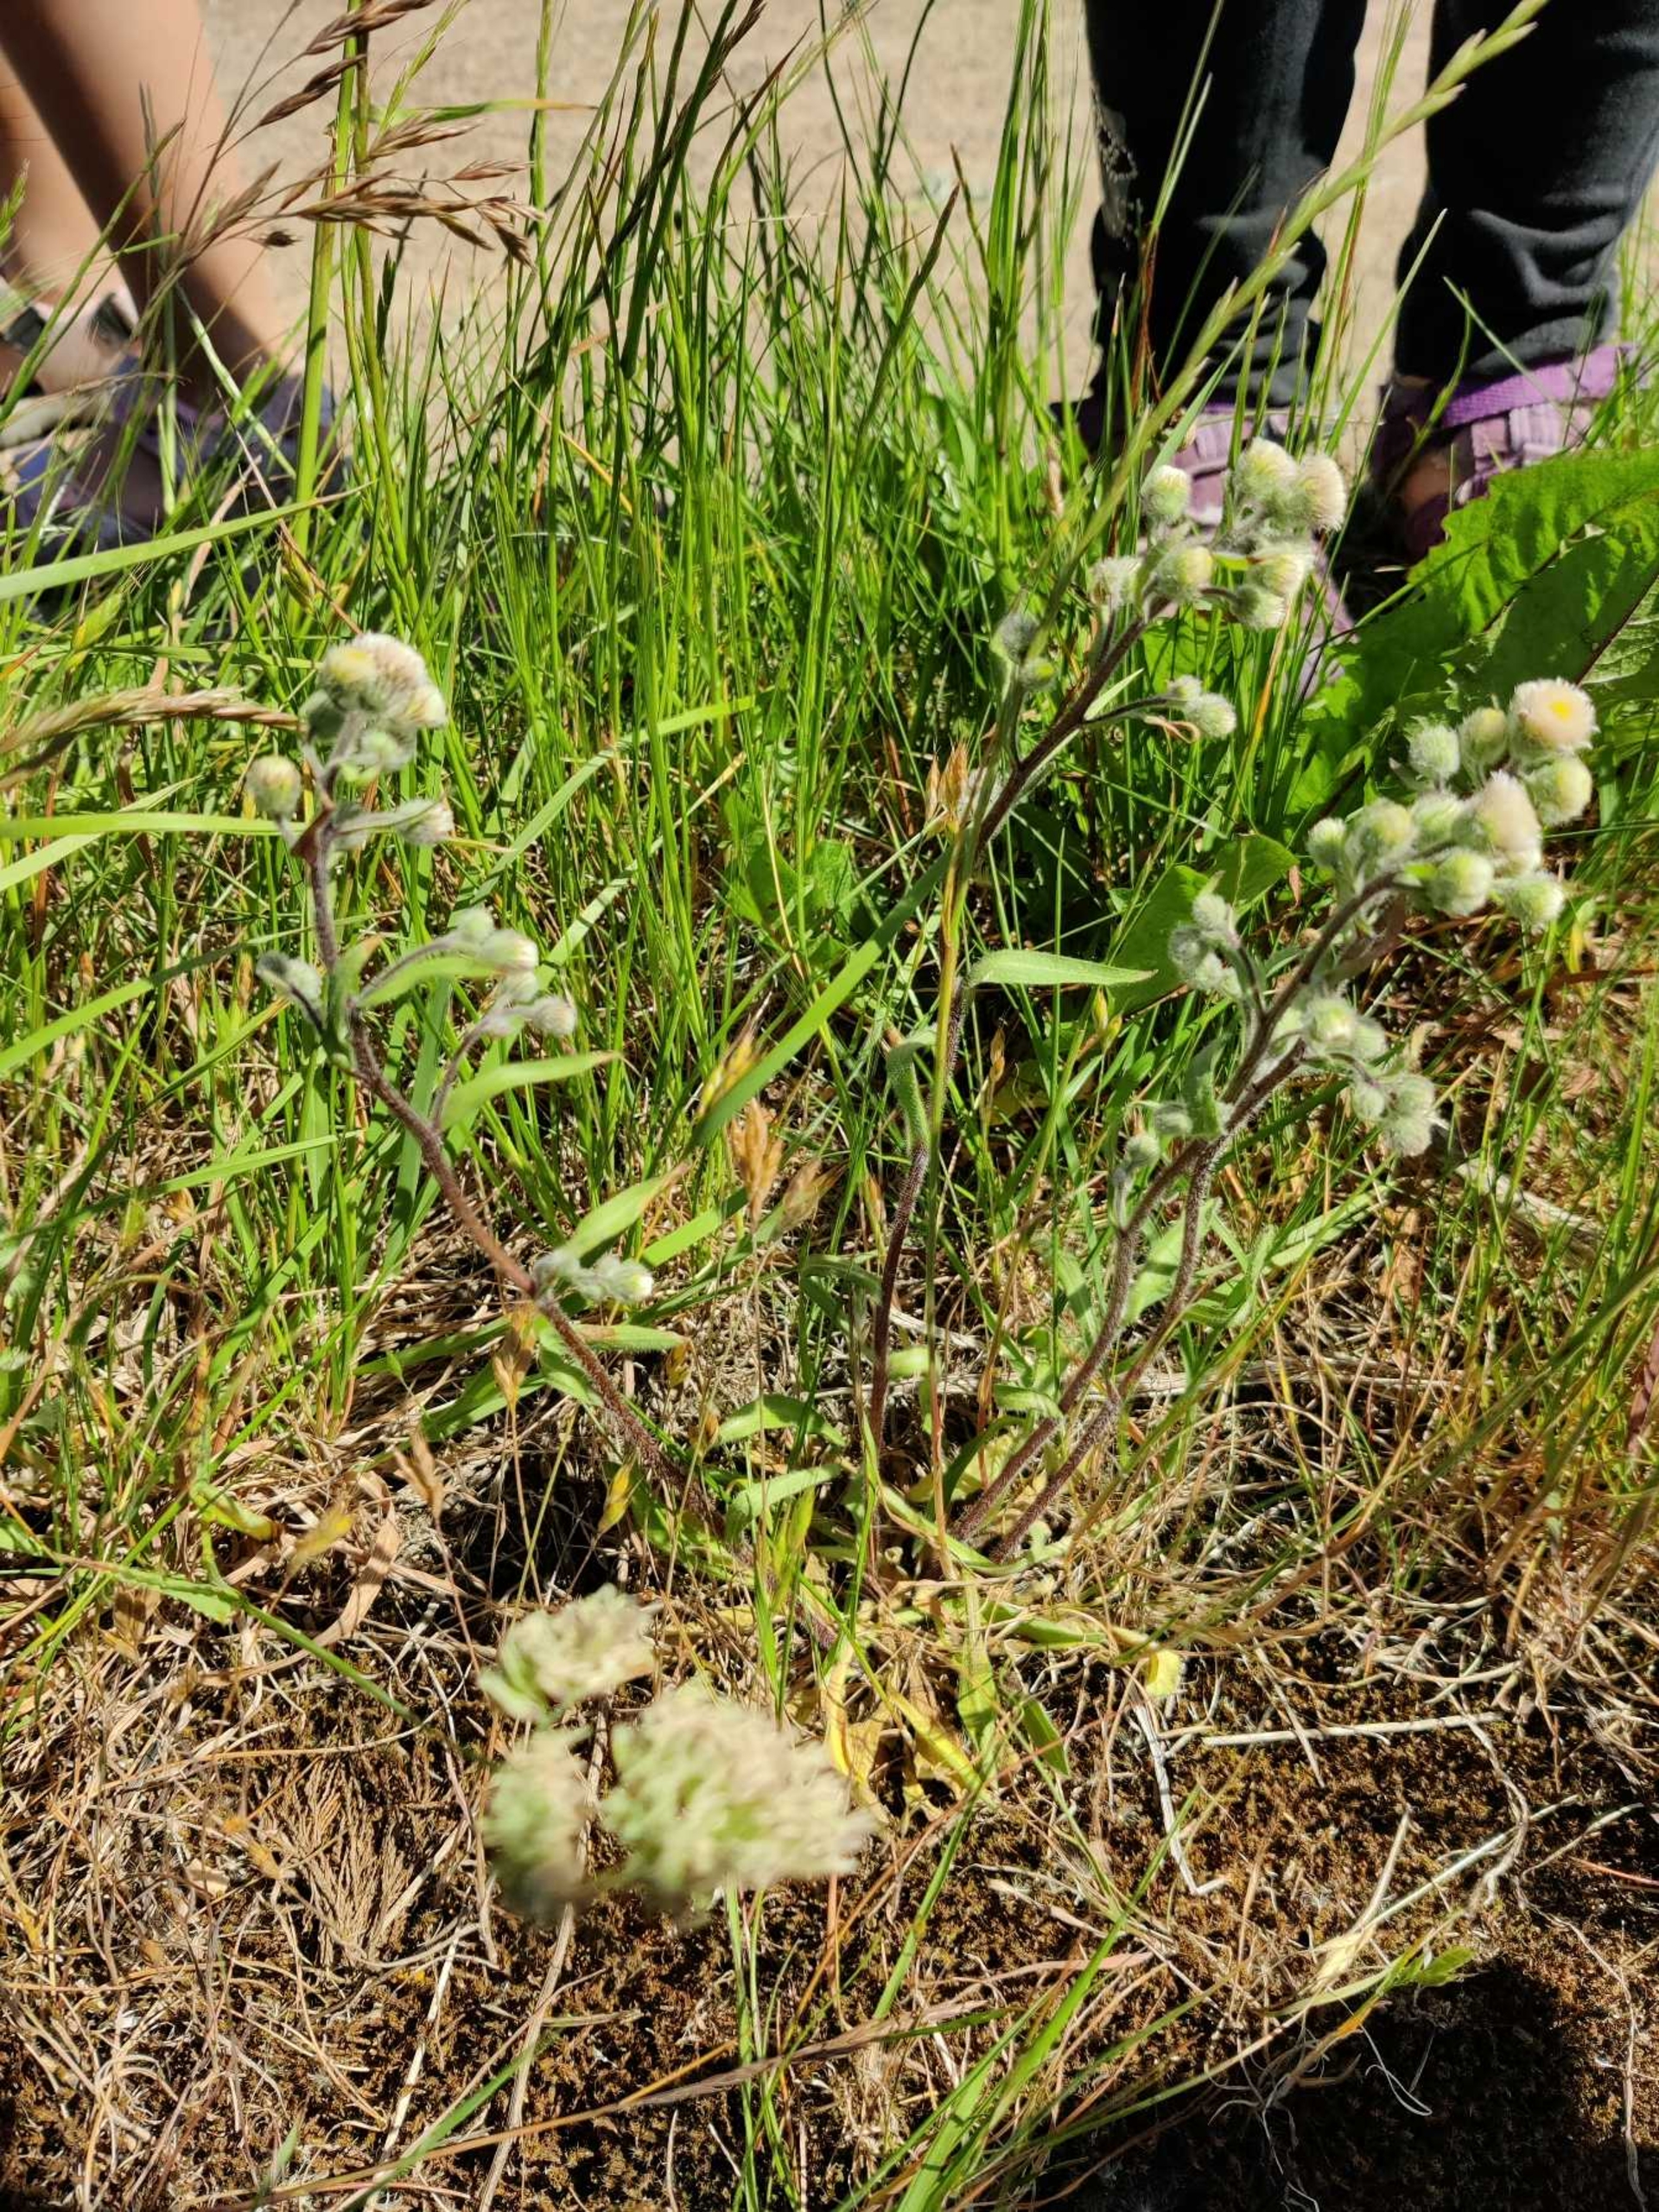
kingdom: Plantae
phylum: Tracheophyta
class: Magnoliopsida
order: Asterales
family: Asteraceae
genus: Erigeron
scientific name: Erigeron acris
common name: Bitter bakkestjerne
